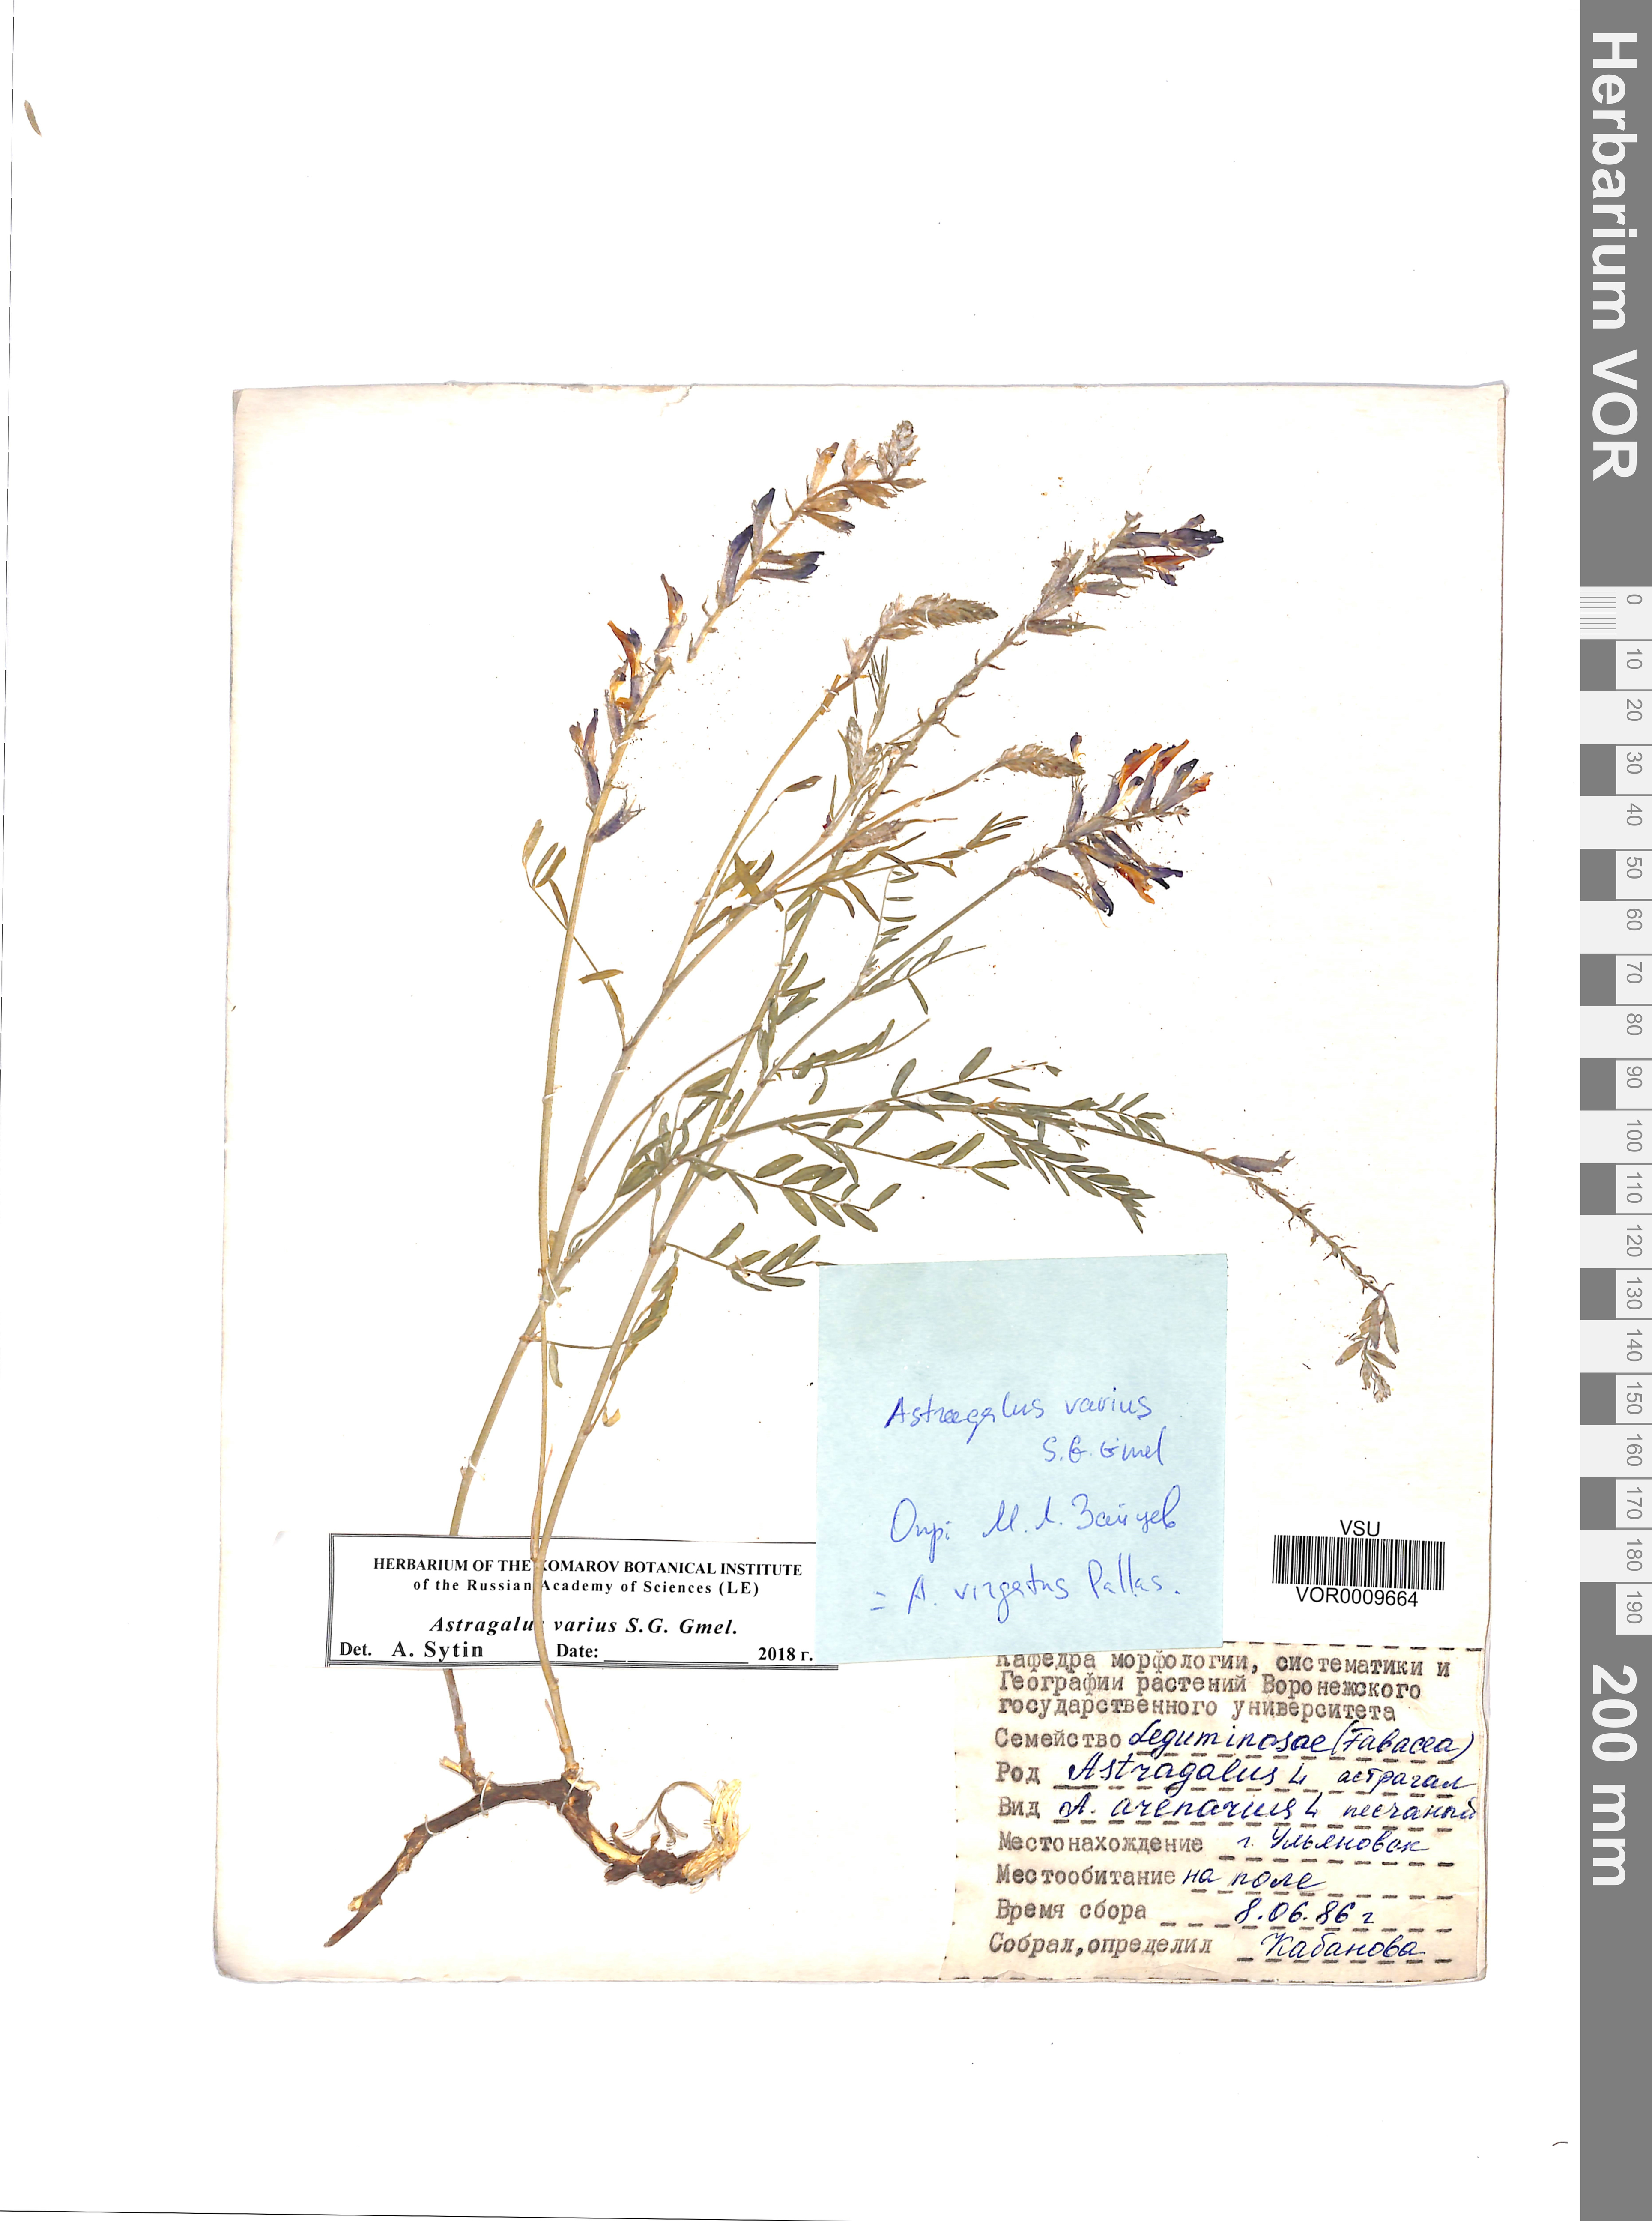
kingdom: Plantae
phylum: Tracheophyta
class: Magnoliopsida
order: Fabales
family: Fabaceae
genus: Astragalus
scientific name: Astragalus varius
